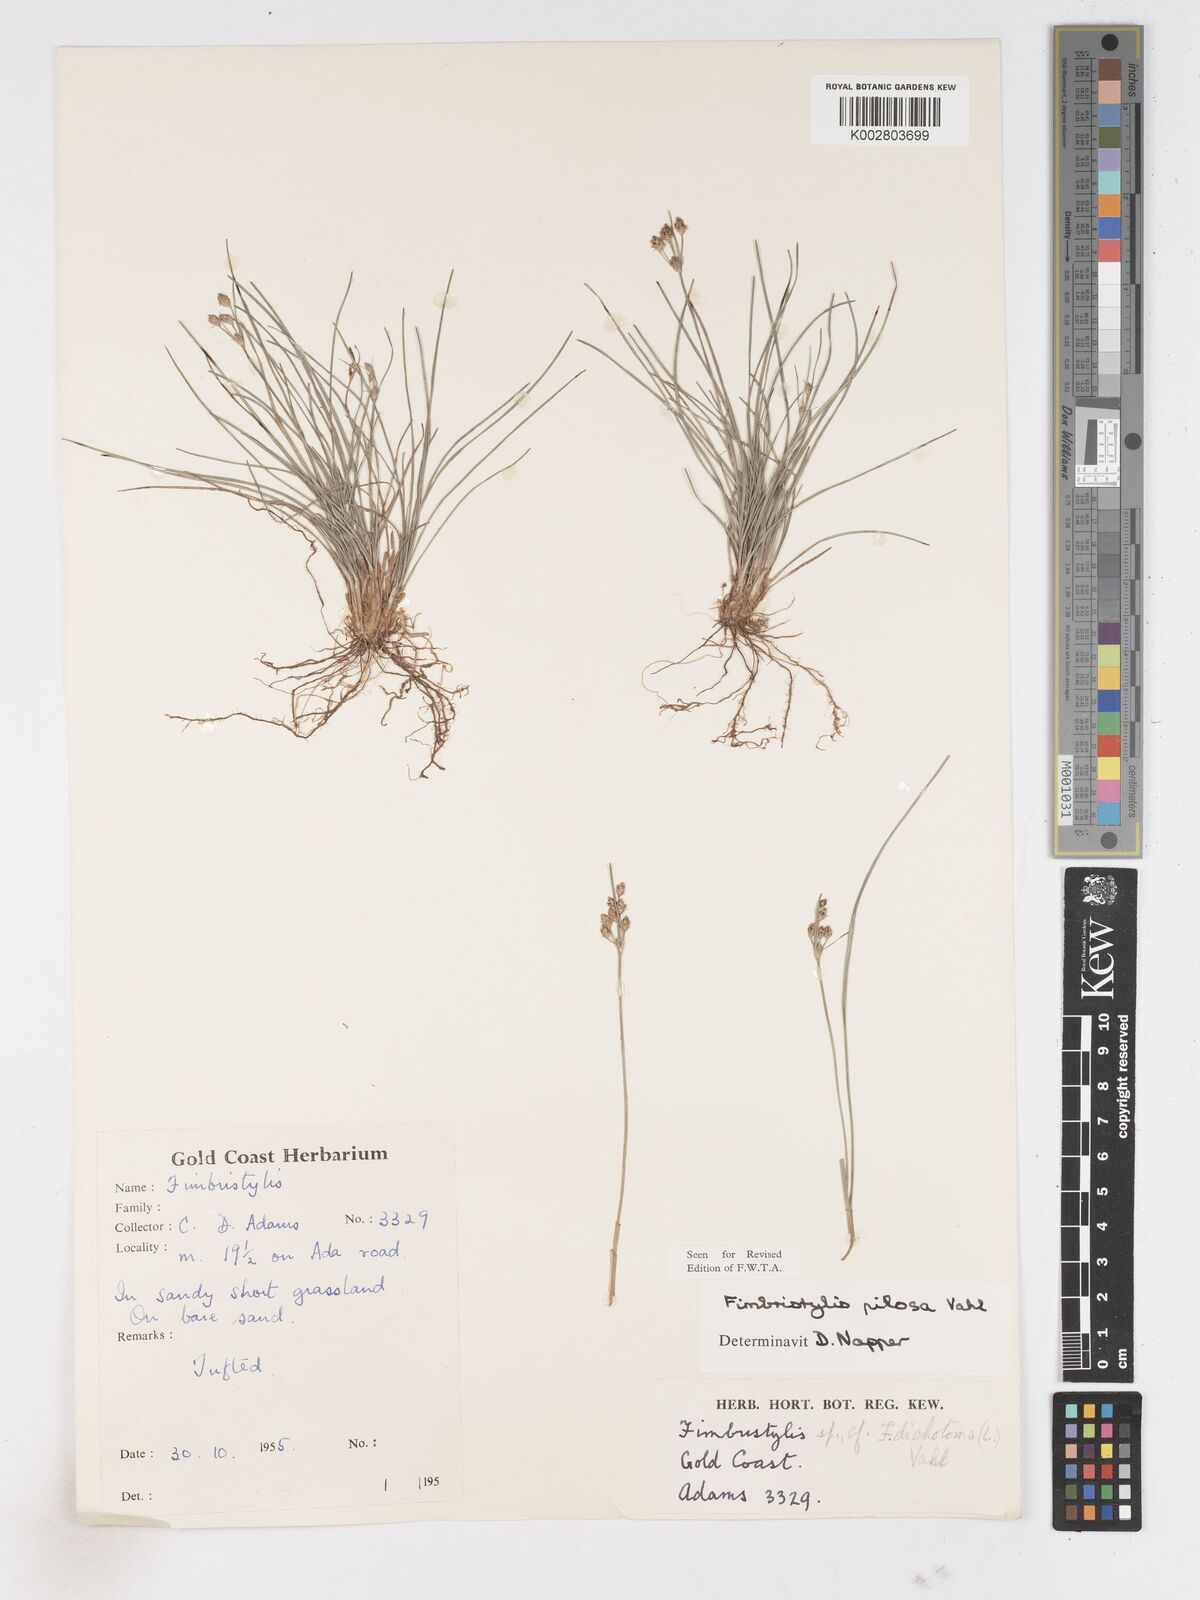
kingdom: Plantae
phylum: Tracheophyta
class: Liliopsida
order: Poales
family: Cyperaceae
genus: Fimbristylis
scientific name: Fimbristylis pilosa
